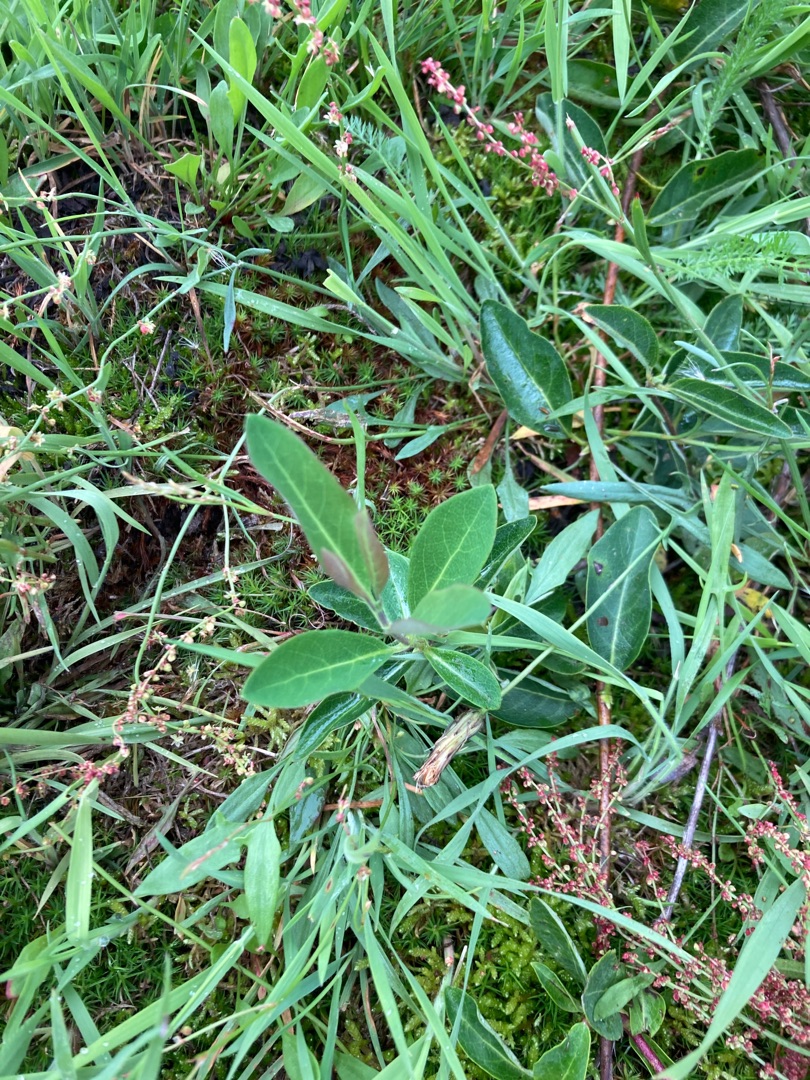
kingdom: Plantae
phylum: Tracheophyta
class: Magnoliopsida
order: Dipsacales
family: Caprifoliaceae
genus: Lonicera
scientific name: Lonicera periclymenum
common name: Almindelig gedeblad
